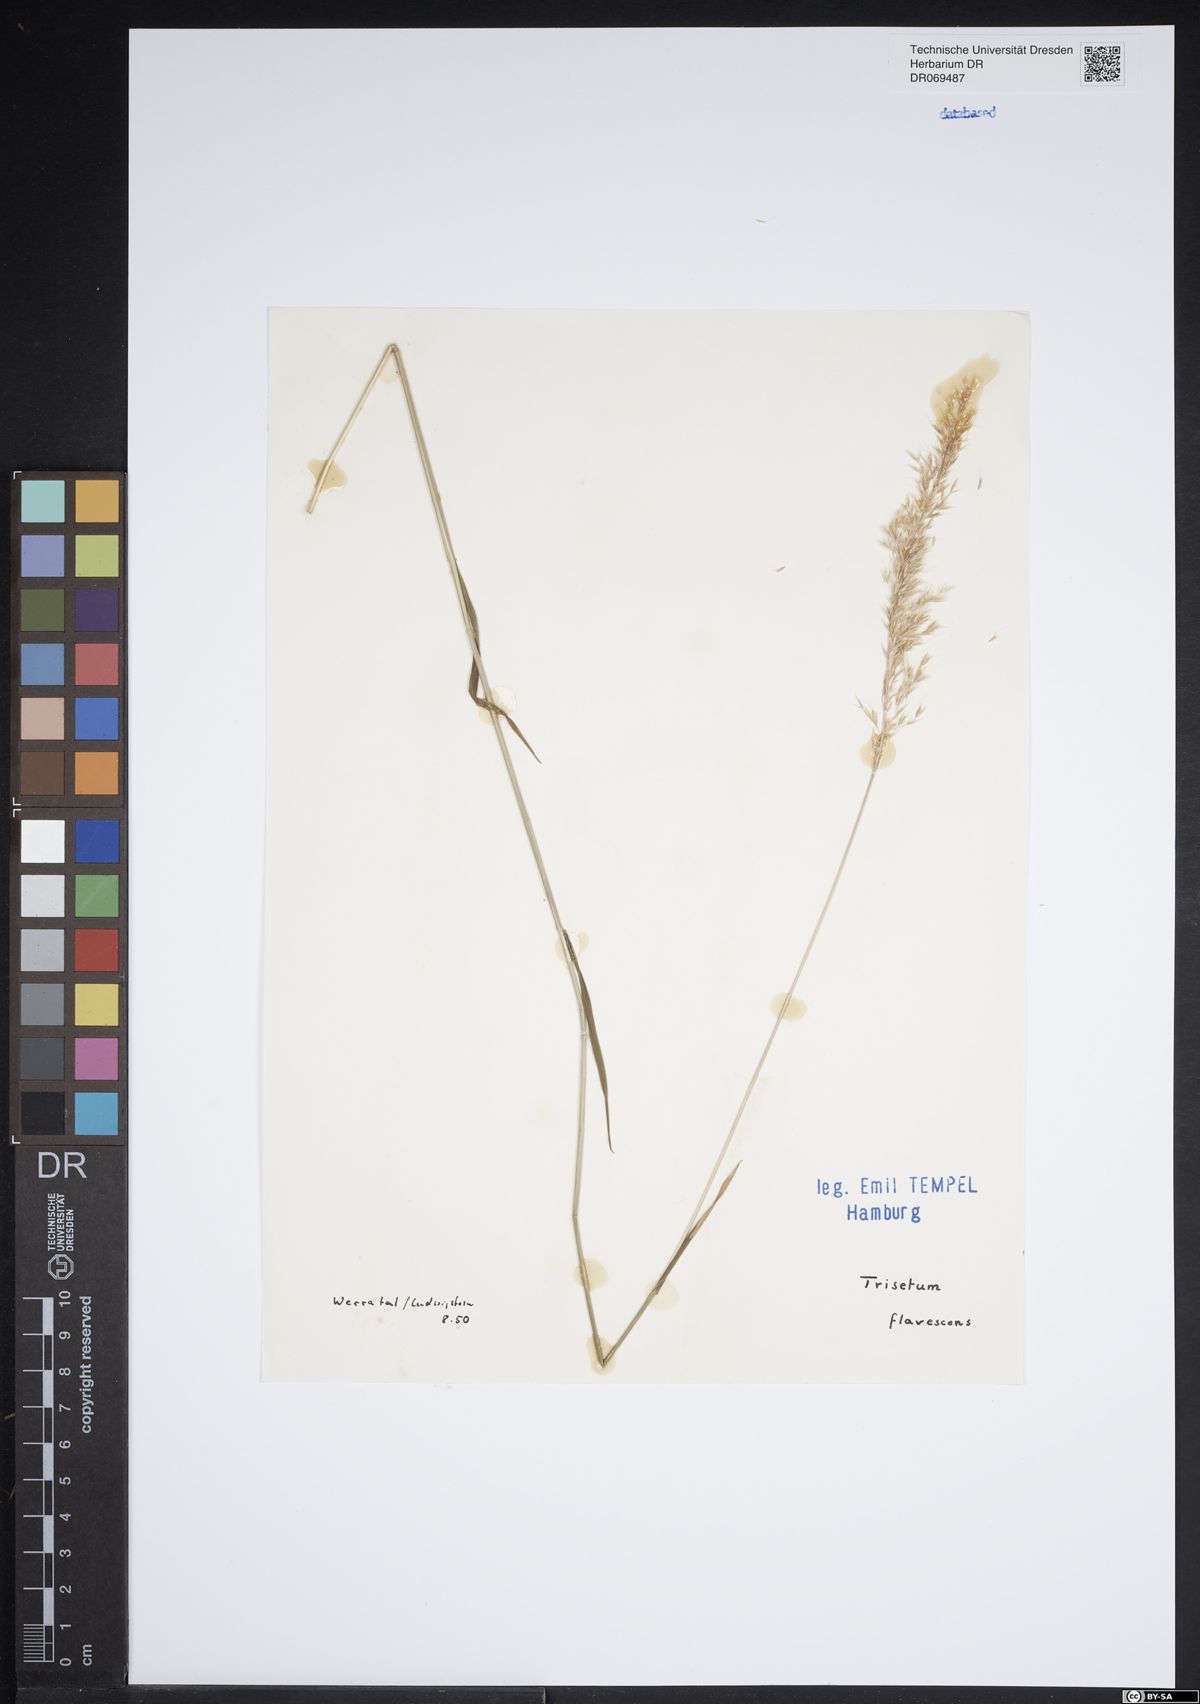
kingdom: Plantae
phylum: Tracheophyta
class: Liliopsida
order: Poales
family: Poaceae
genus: Trisetum
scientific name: Trisetum flavescens
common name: Yellow oat-grass
